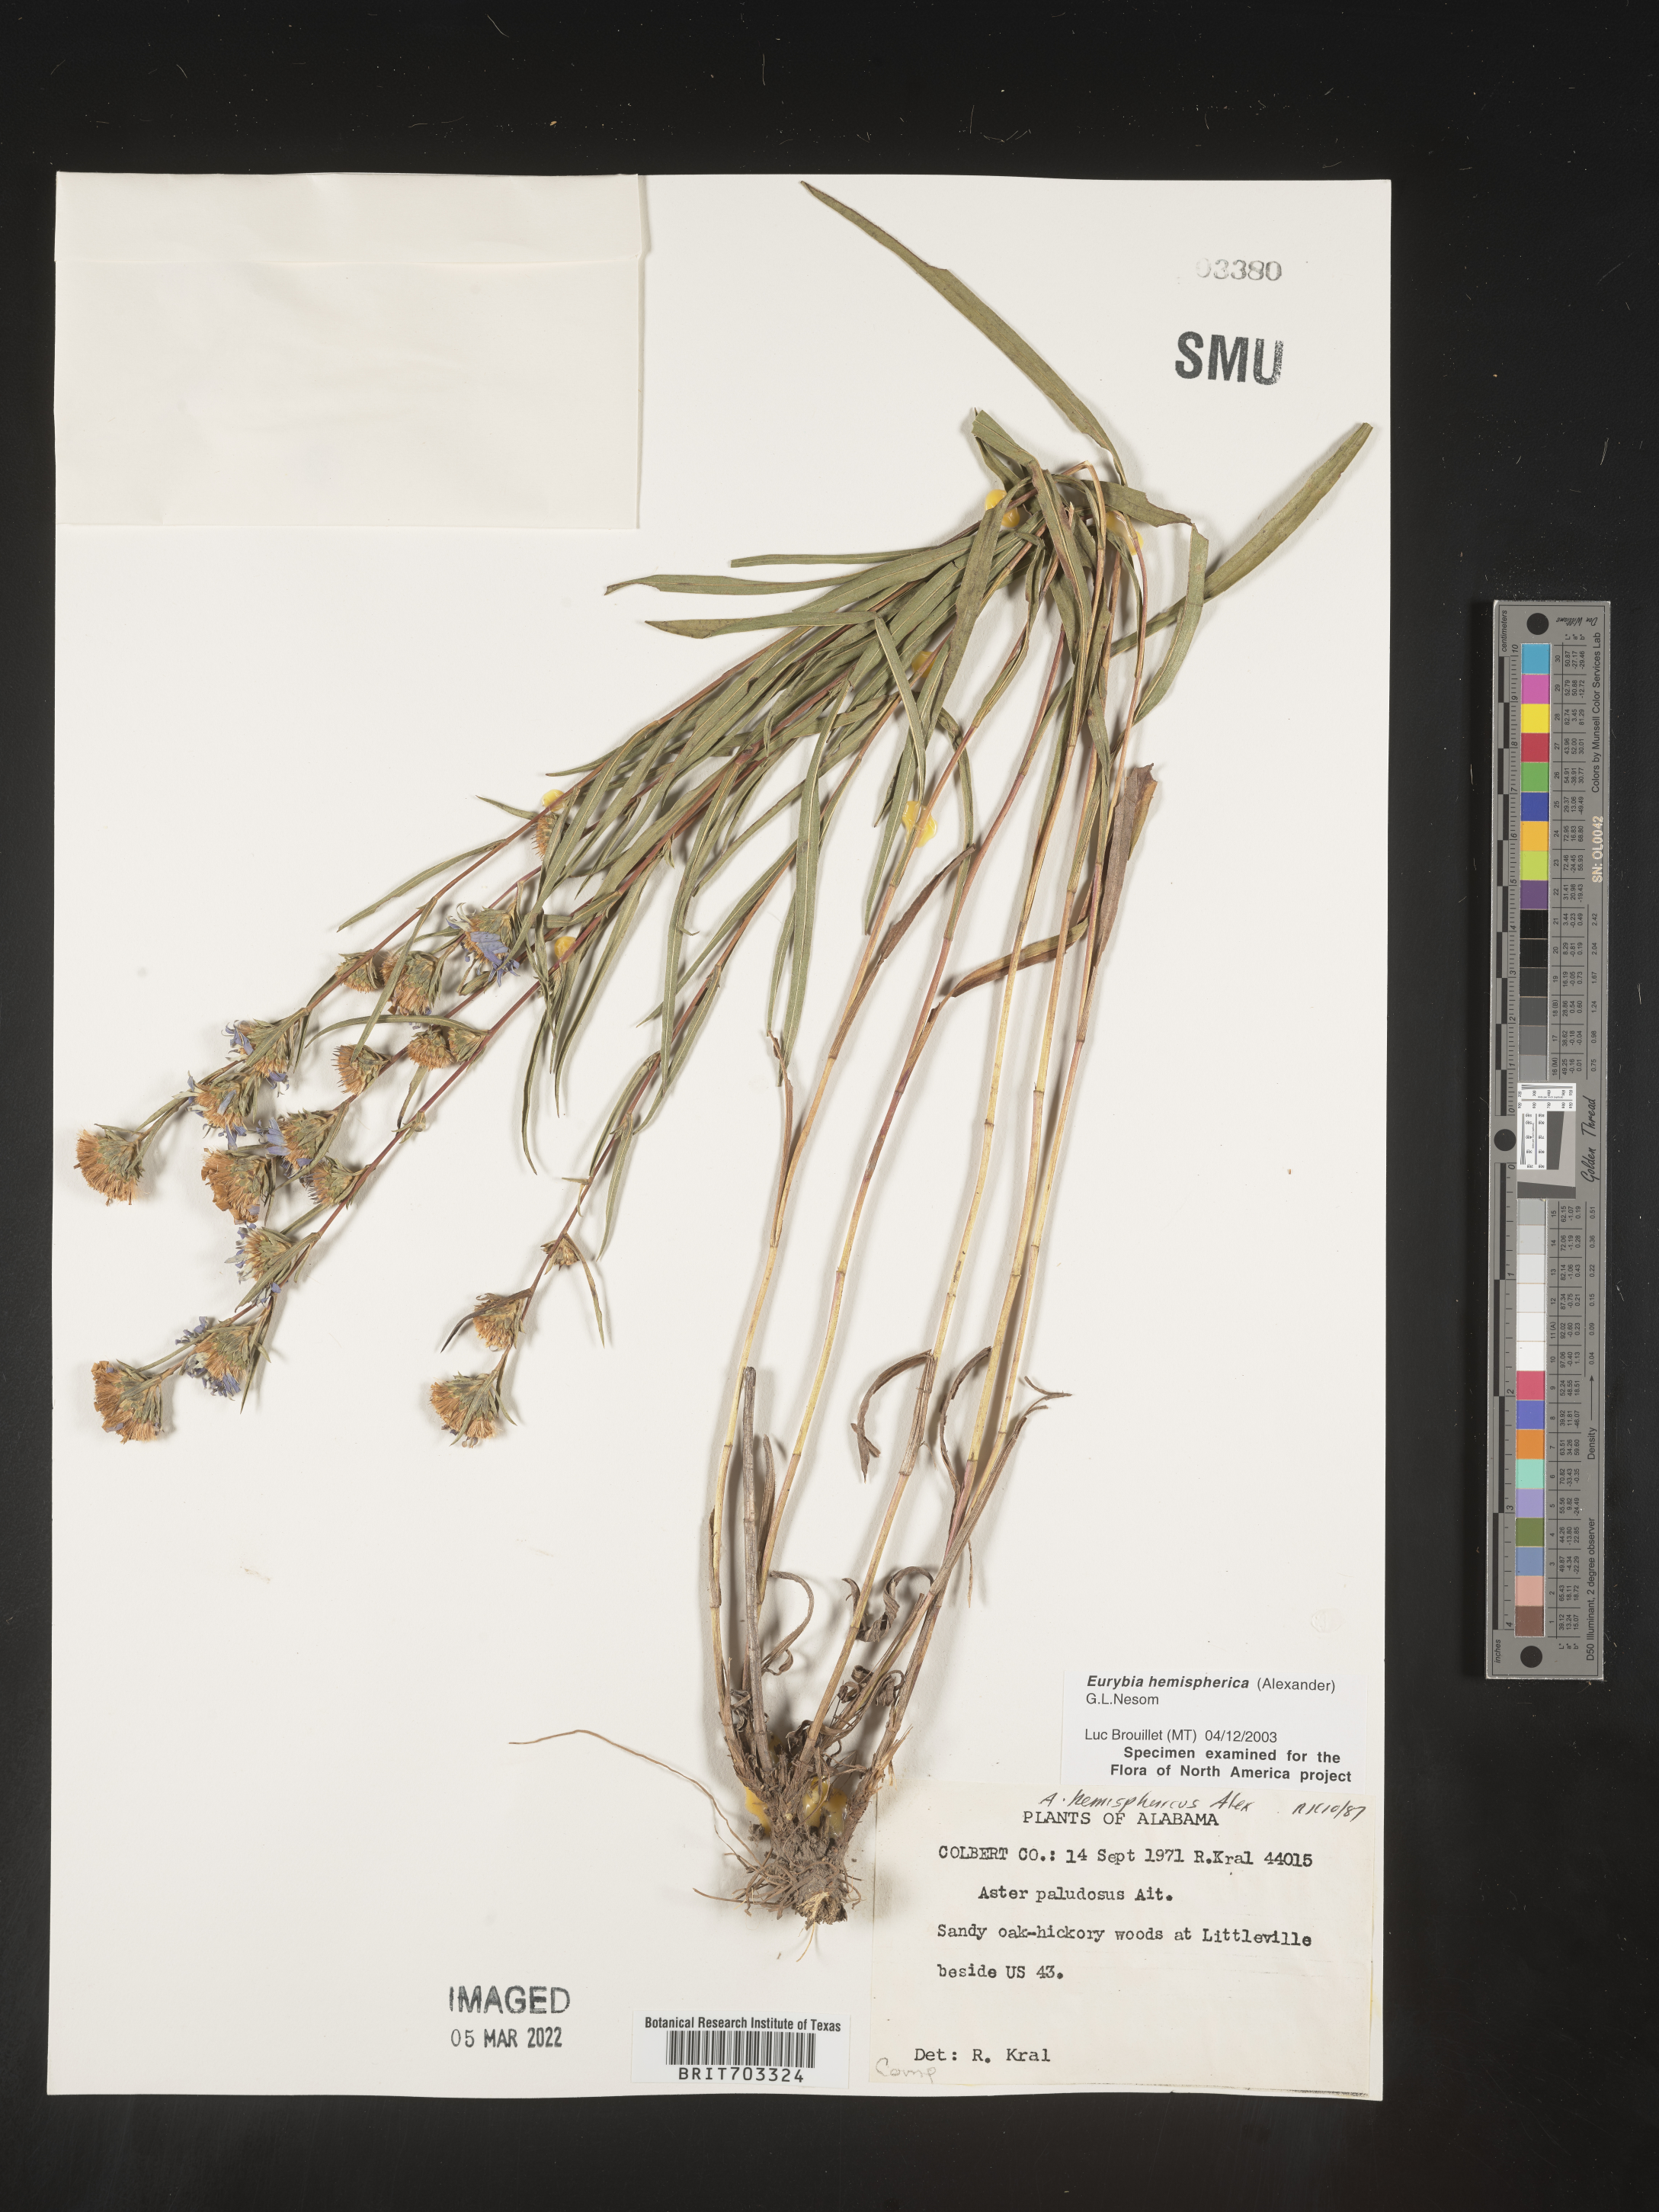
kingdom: Plantae
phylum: Tracheophyta
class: Magnoliopsida
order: Asterales
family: Asteraceae
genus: Eurybia
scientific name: Eurybia hemispherica
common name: Showy aster
